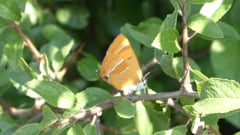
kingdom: Animalia
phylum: Arthropoda
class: Insecta
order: Lepidoptera
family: Lycaenidae
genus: Thecla
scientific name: Thecla betulae
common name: Brown hairstreak
